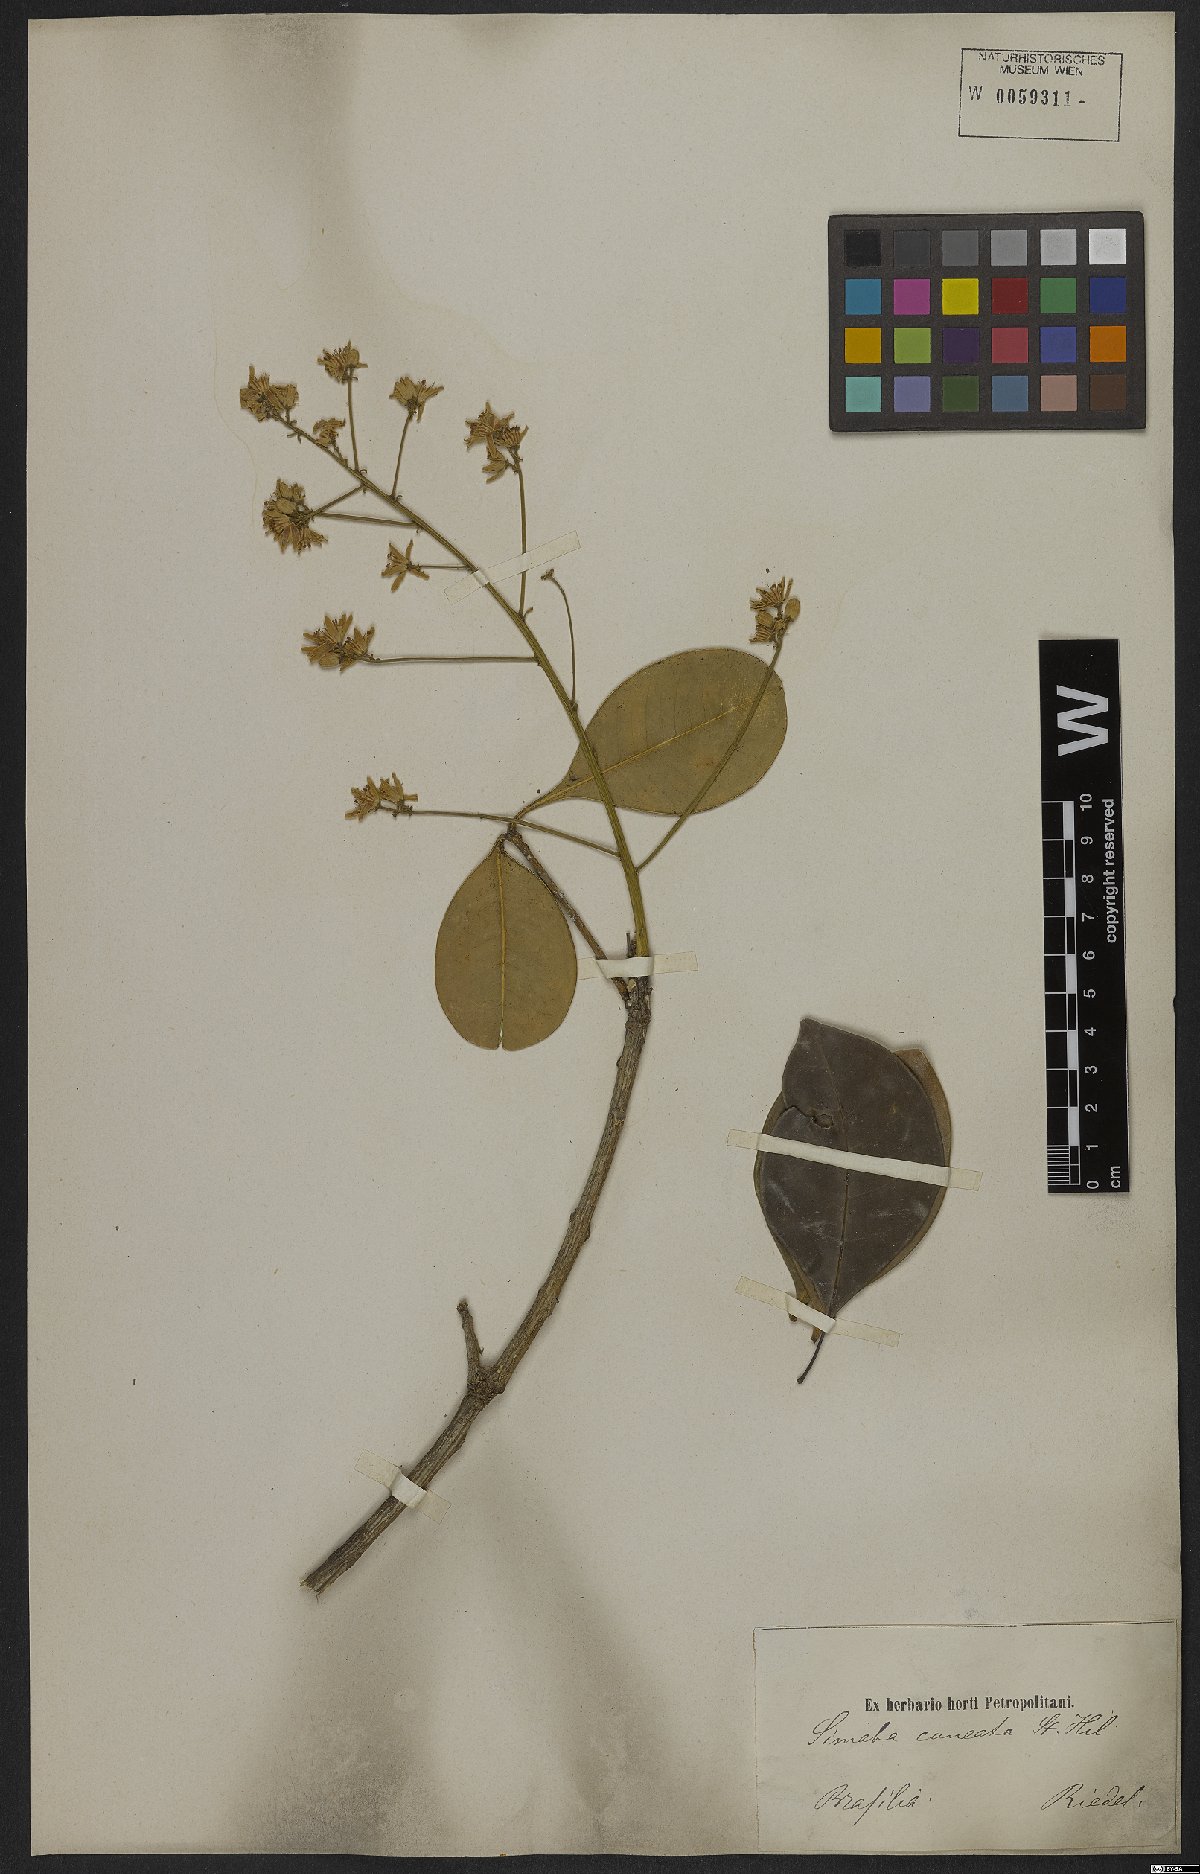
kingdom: Plantae
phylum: Tracheophyta
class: Magnoliopsida
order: Sapindales
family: Simaroubaceae
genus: Homalolepis
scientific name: Homalolepis cuneata
